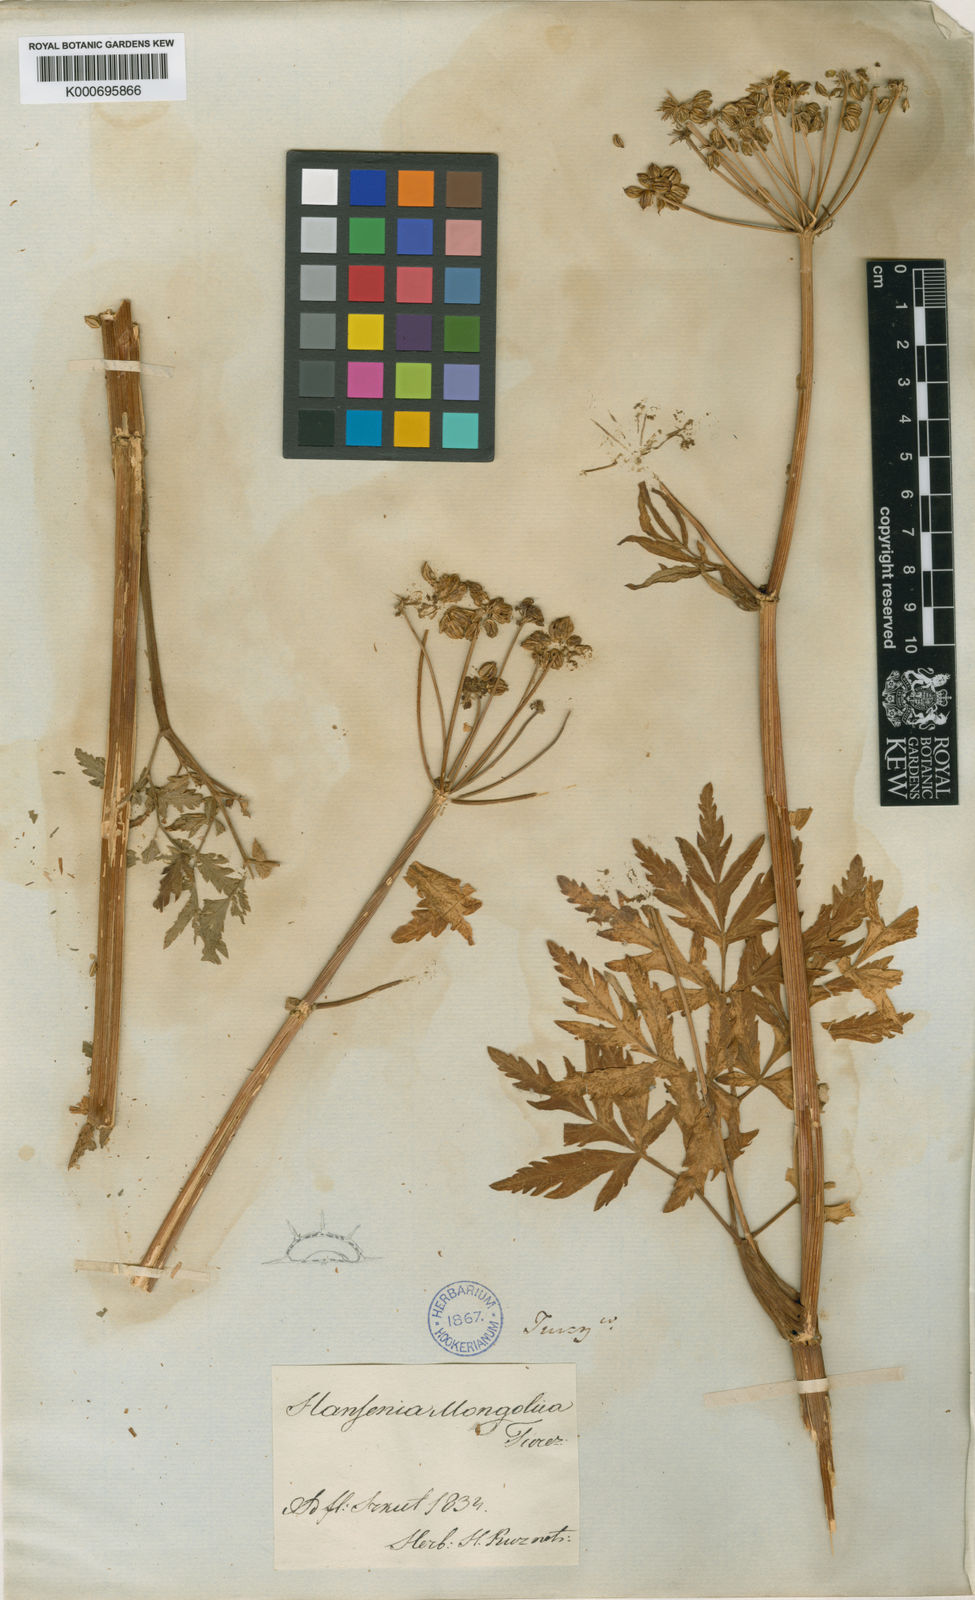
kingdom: Plantae
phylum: Tracheophyta
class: Magnoliopsida
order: Apiales
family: Apiaceae
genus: Hansenia
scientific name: Hansenia mongholica
